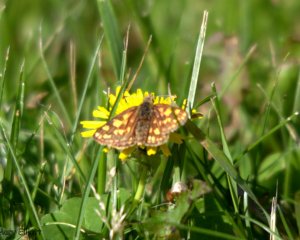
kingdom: Animalia
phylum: Arthropoda
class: Insecta
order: Lepidoptera
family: Hesperiidae
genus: Carterocephalus
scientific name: Carterocephalus palaemon
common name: Chequered Skipper
